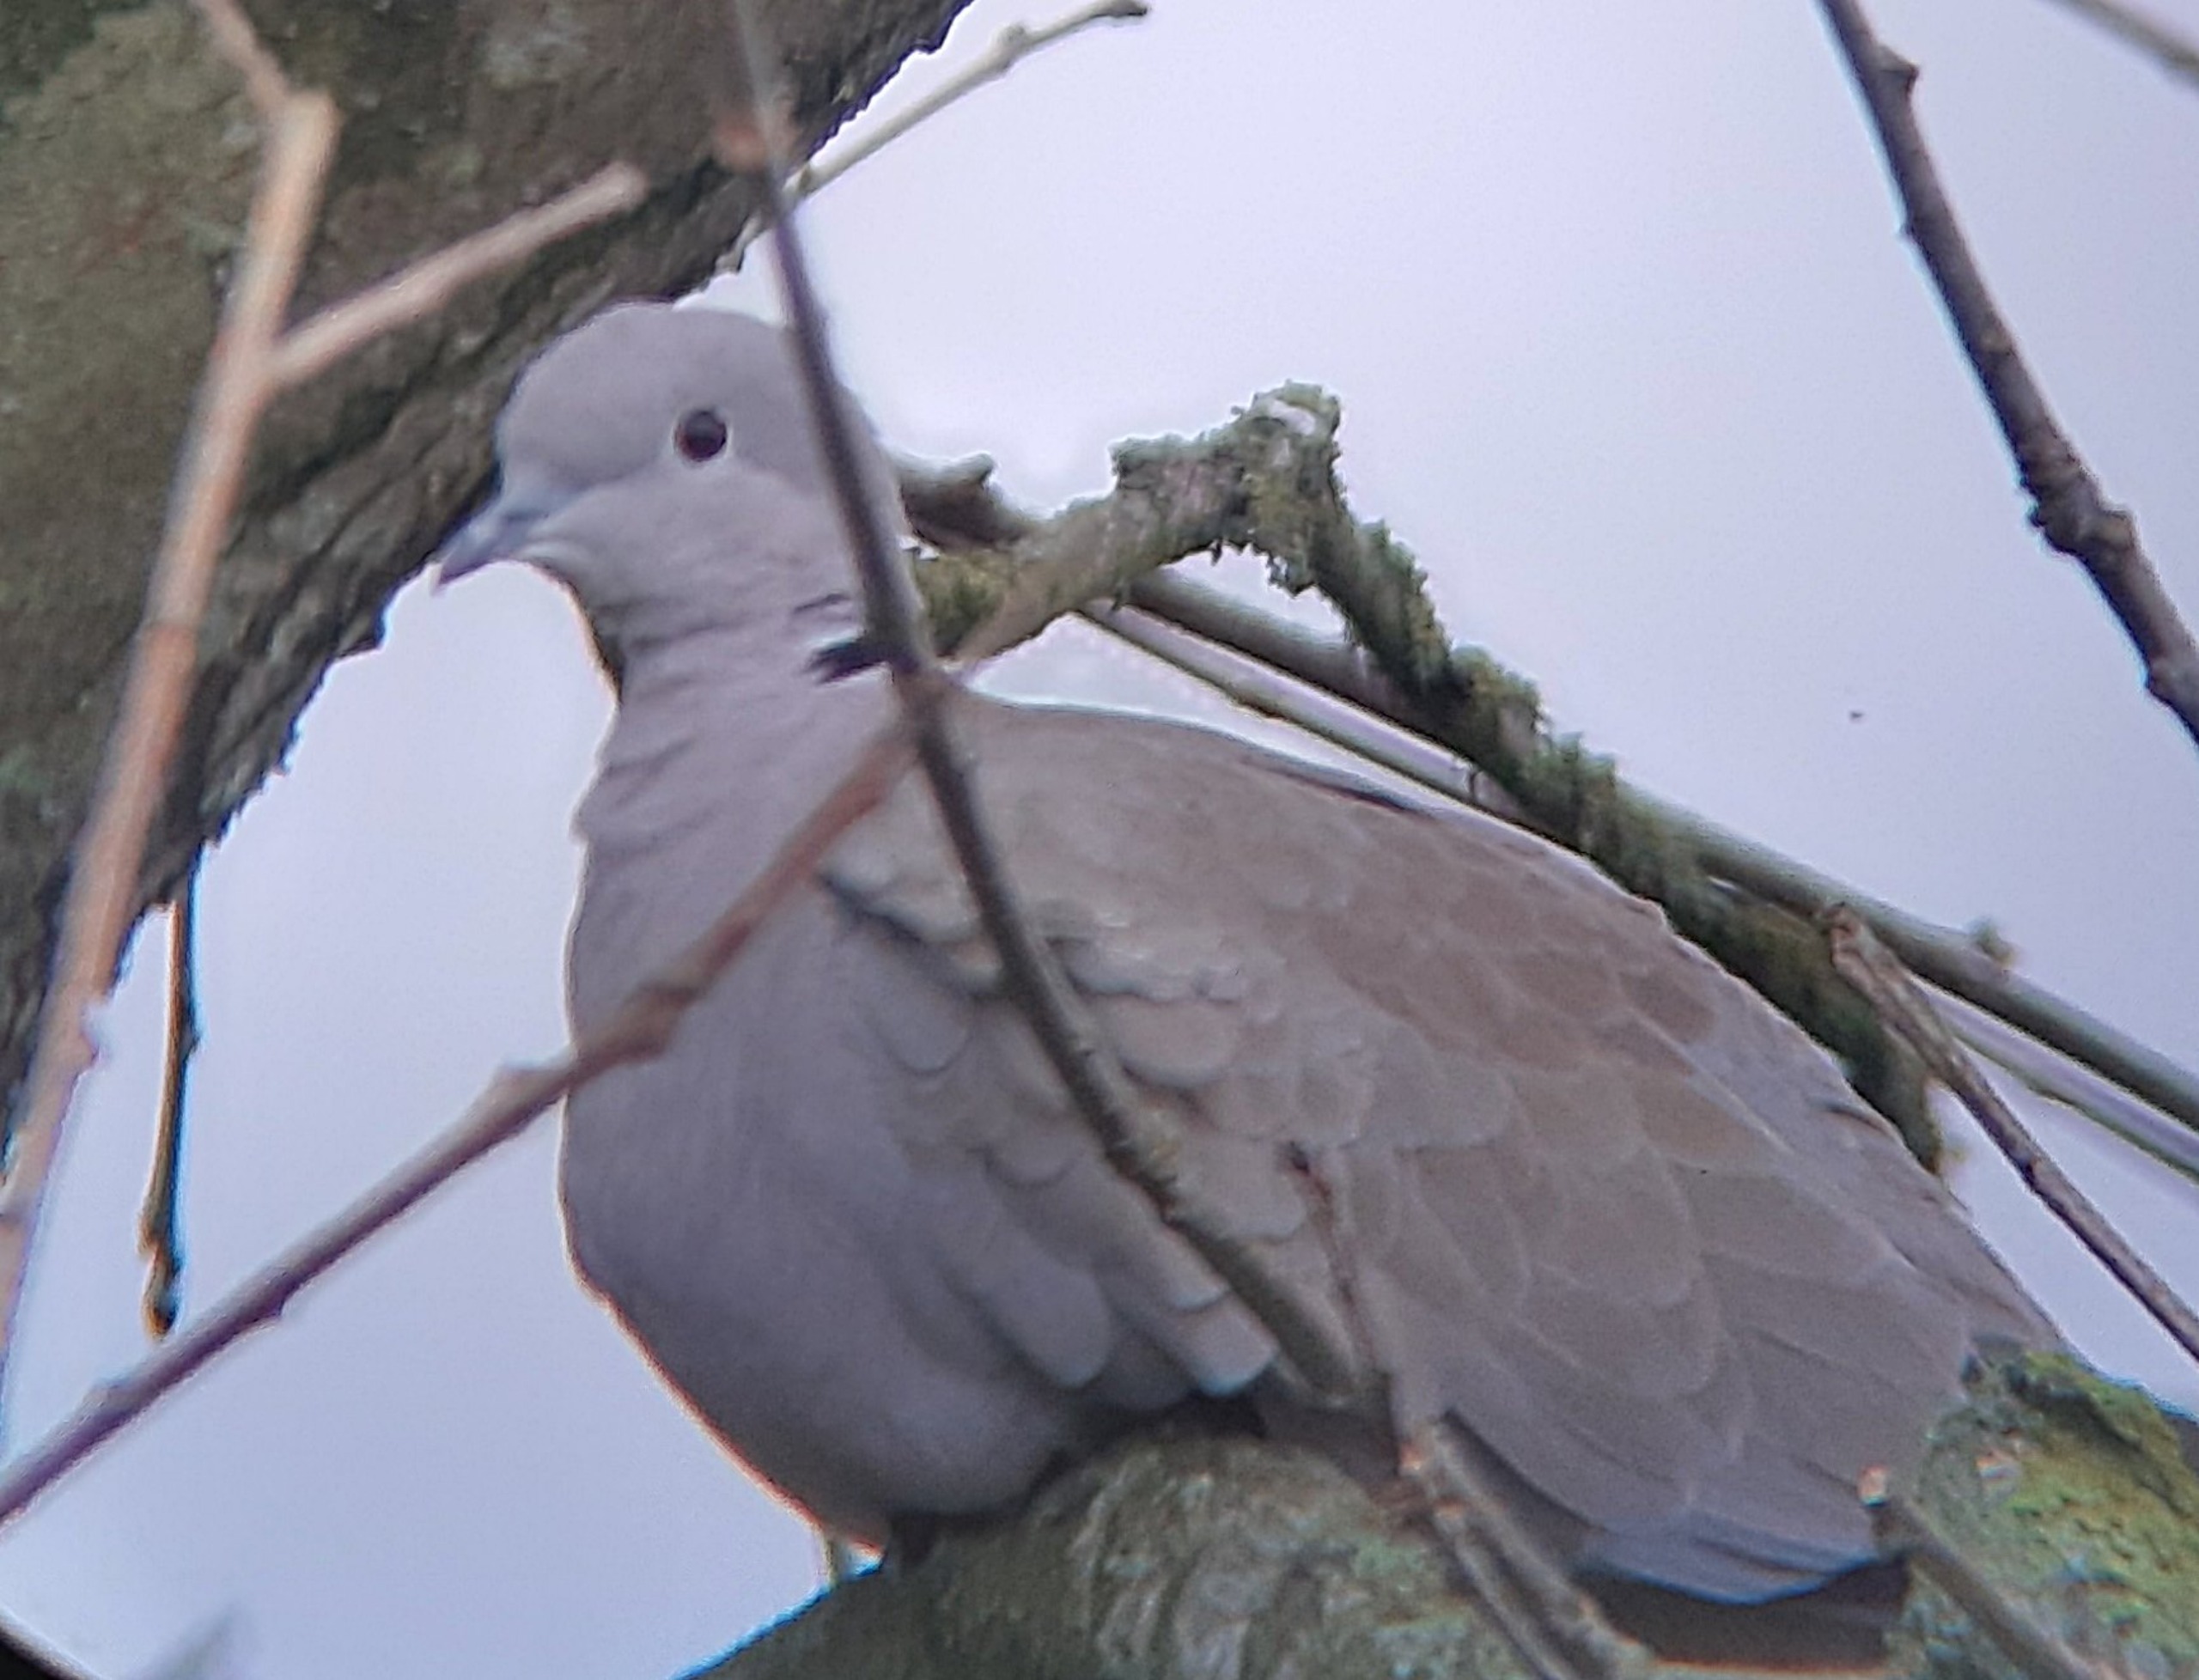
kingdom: Animalia
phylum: Chordata
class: Aves
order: Columbiformes
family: Columbidae
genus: Streptopelia
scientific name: Streptopelia decaocto
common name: Tyrkerdue
